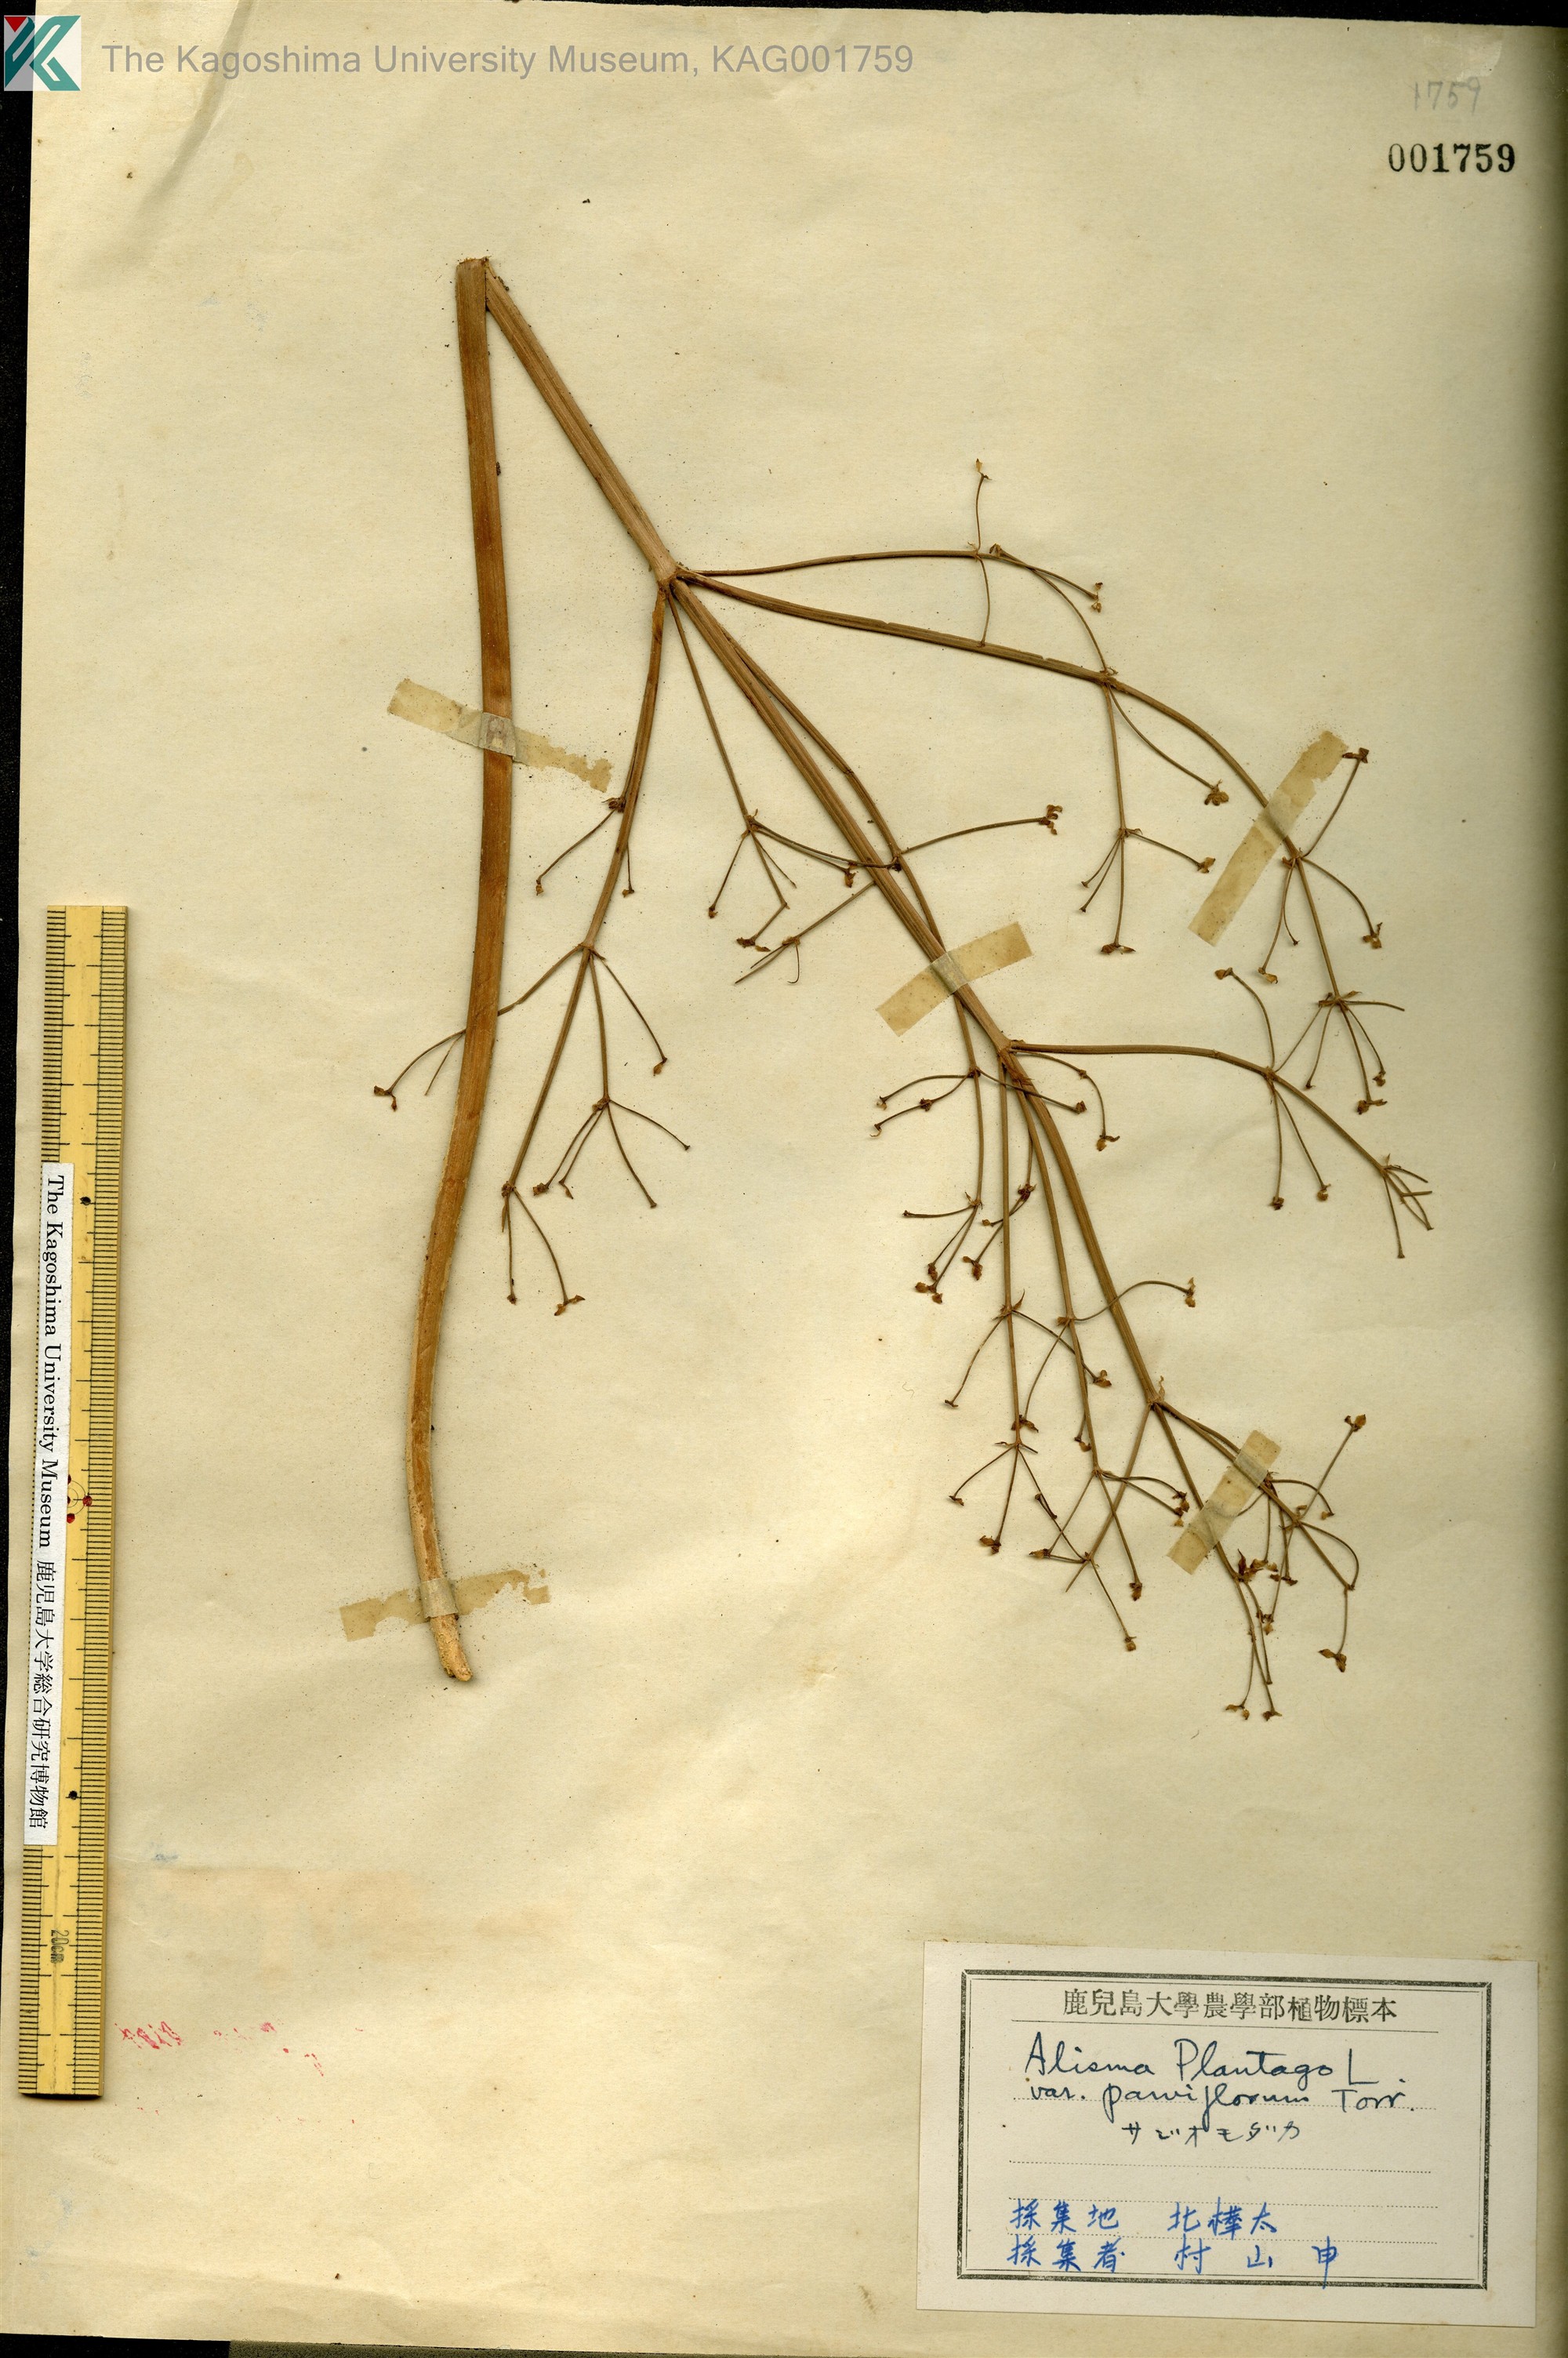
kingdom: Plantae
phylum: Tracheophyta
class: Liliopsida
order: Alismatales
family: Alismataceae
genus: Alisma
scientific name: Alisma plantago-aquatica
